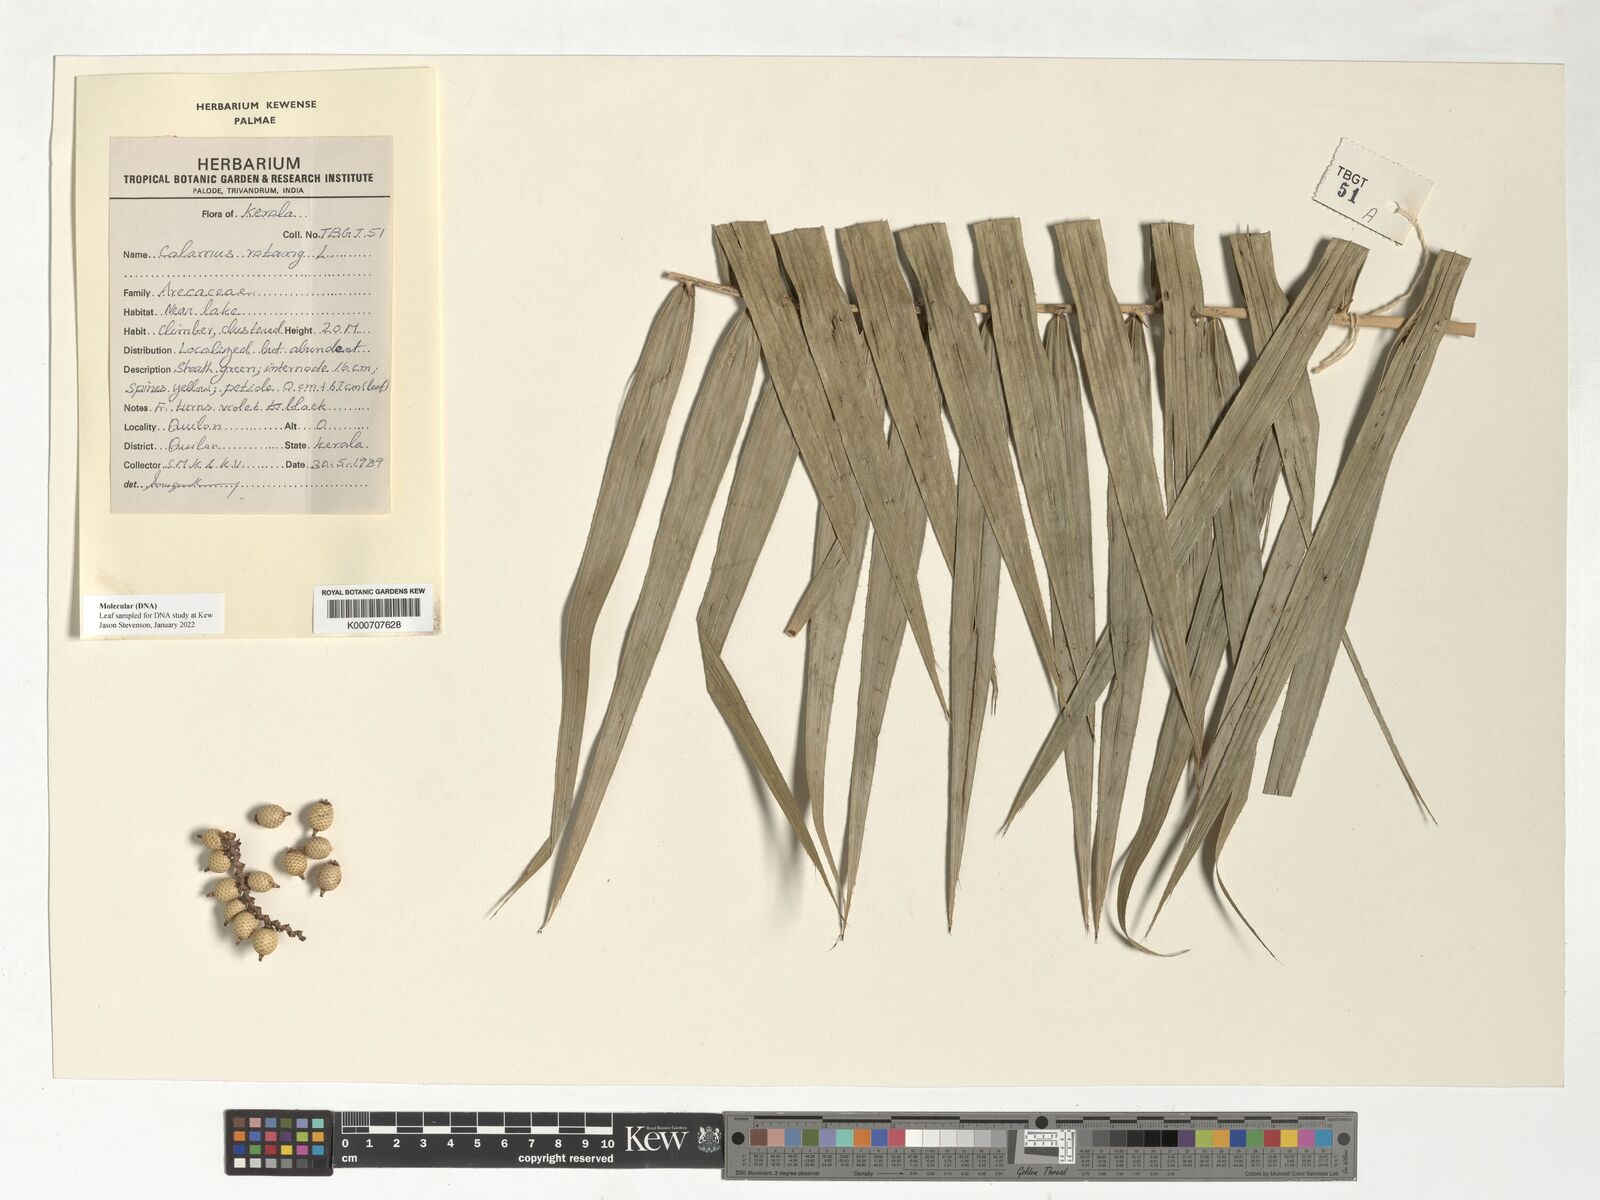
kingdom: Plantae
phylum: Tracheophyta
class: Liliopsida
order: Arecales
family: Arecaceae
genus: Calamus
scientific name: Calamus rotang
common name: Rattan cane
